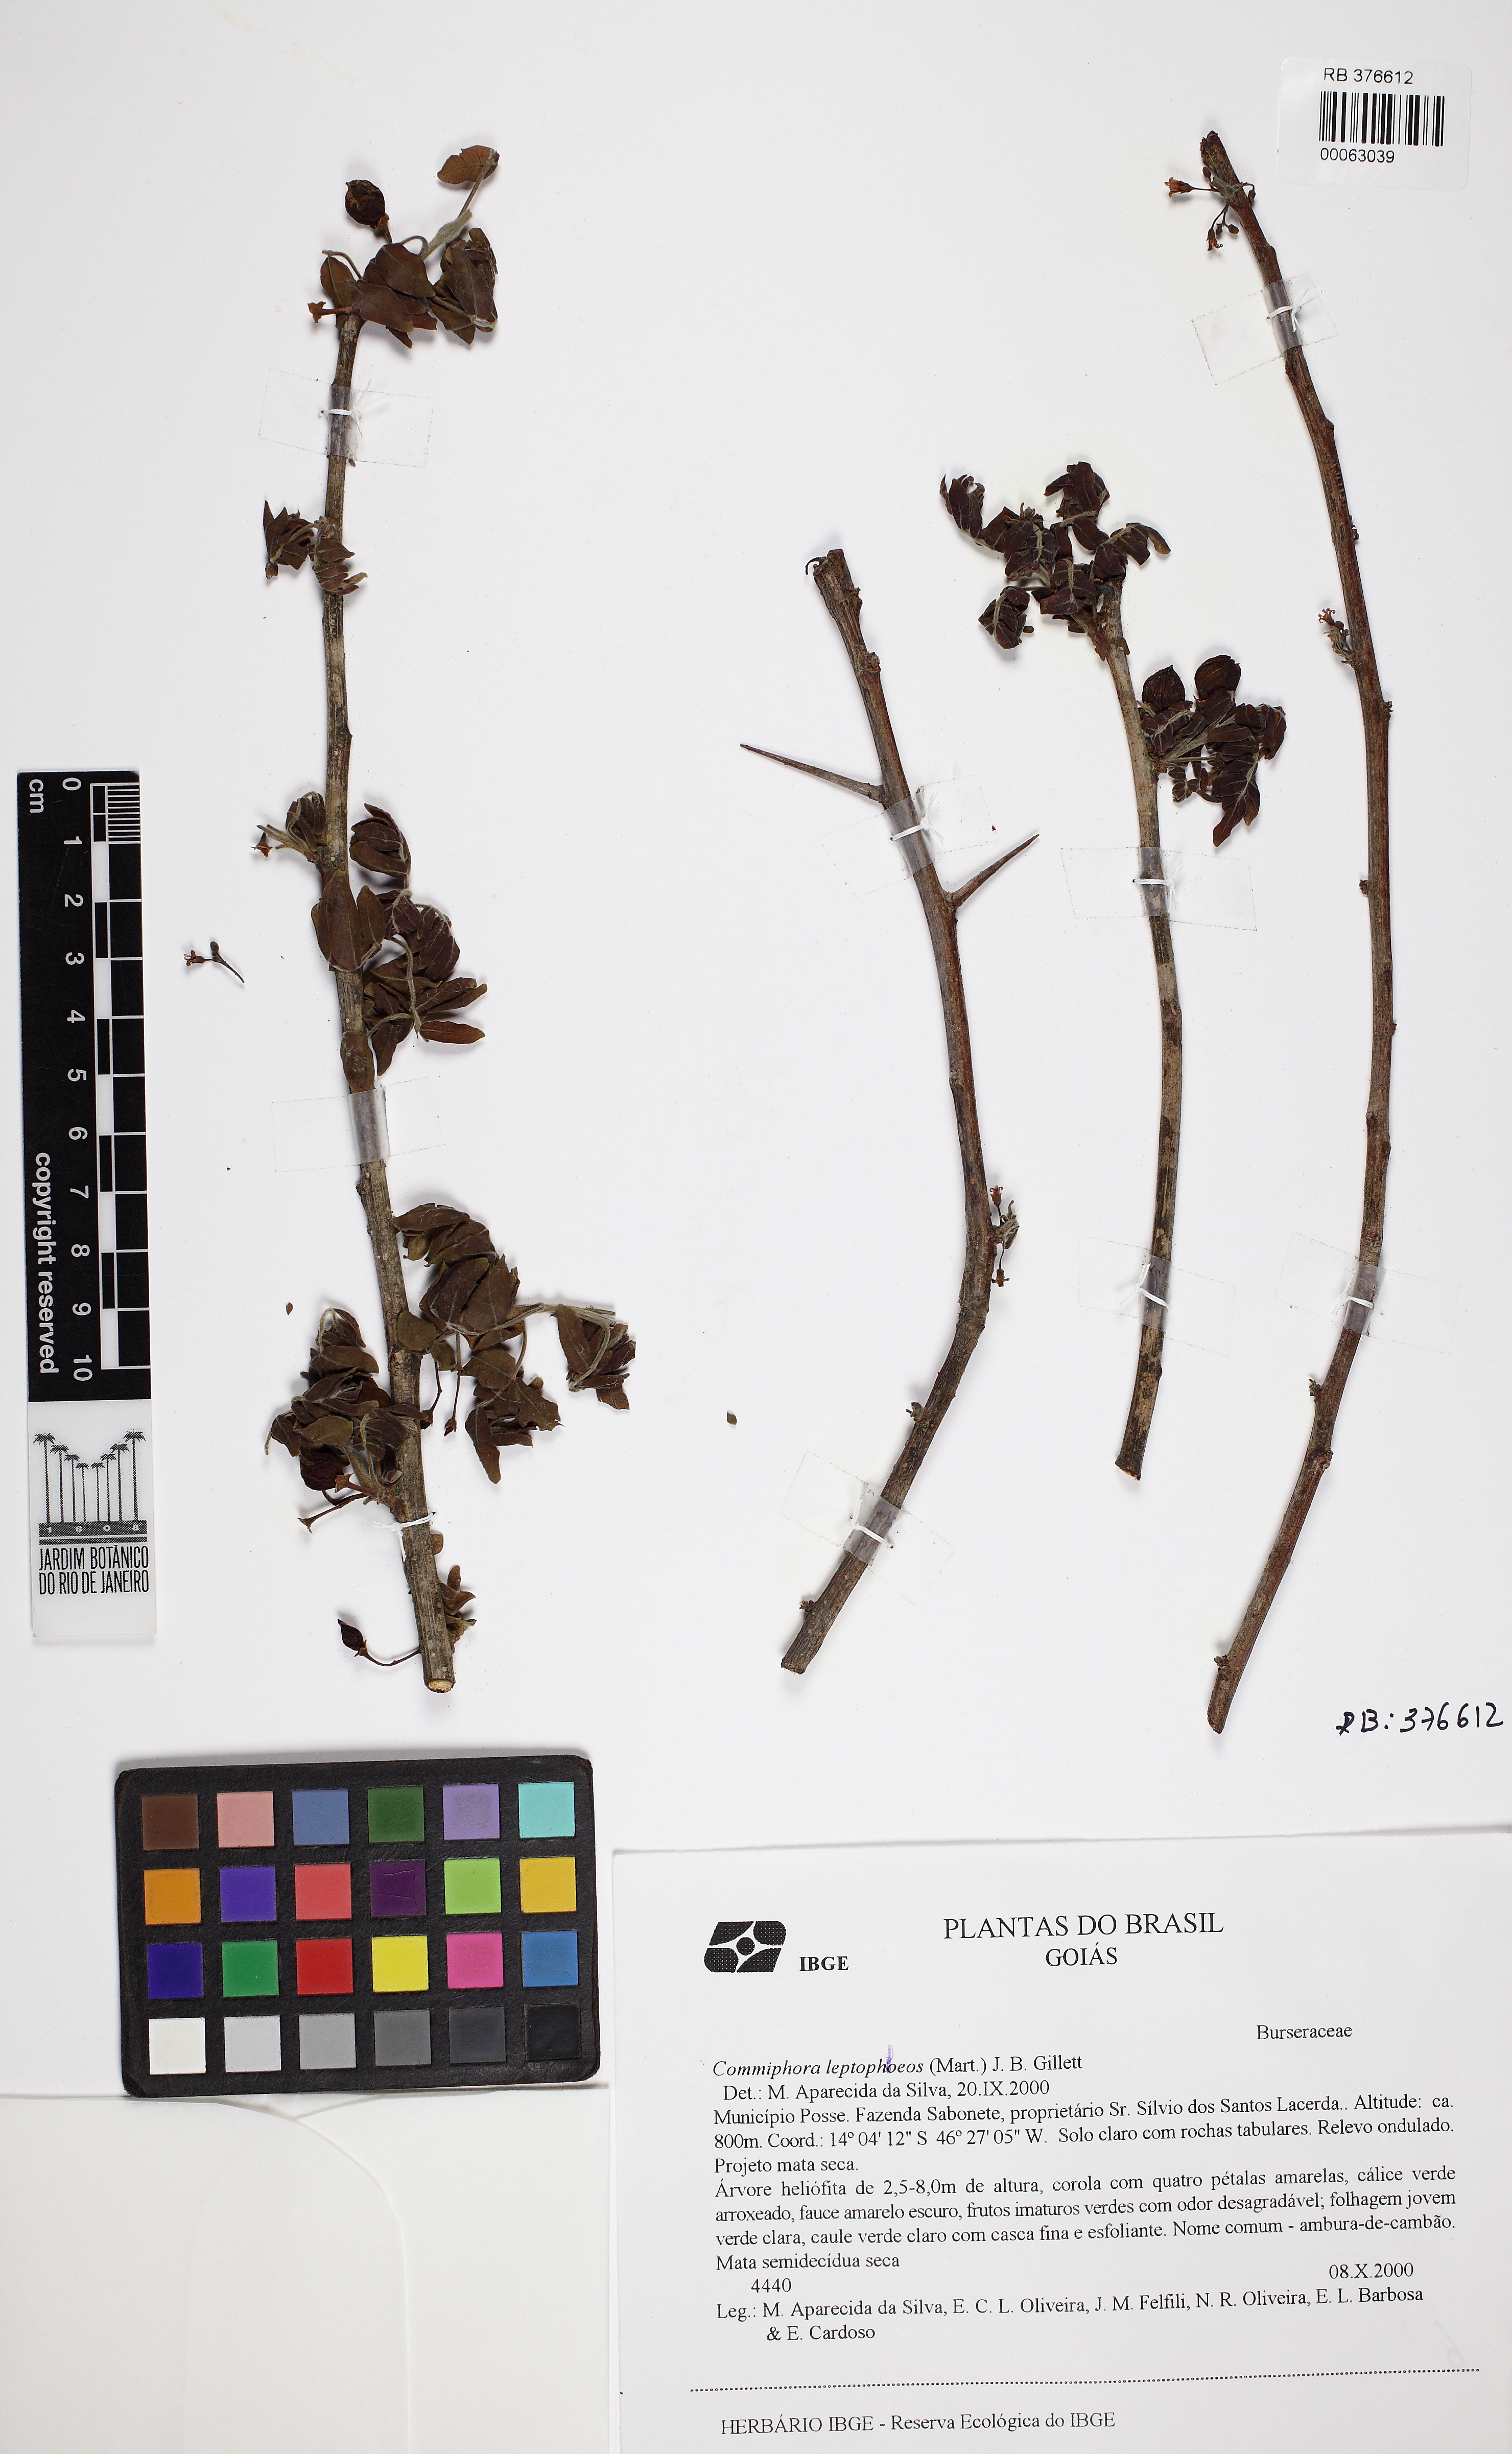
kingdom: Plantae
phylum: Tracheophyta
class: Magnoliopsida
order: Sapindales
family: Burseraceae
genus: Bursera
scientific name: Bursera leptophloeos
